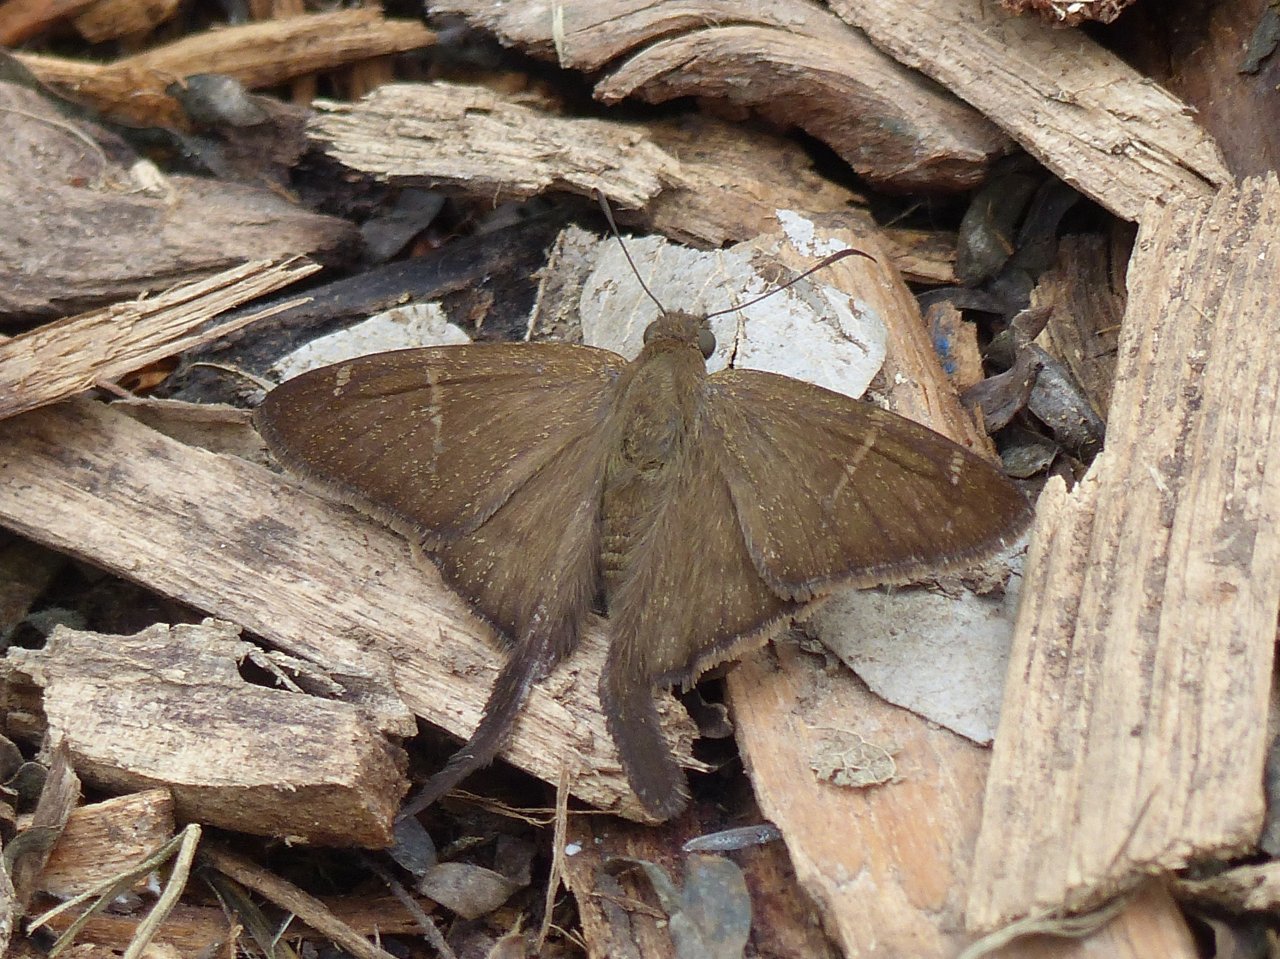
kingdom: Animalia
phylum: Arthropoda
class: Insecta
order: Lepidoptera
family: Hesperiidae
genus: Urbanus
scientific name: Urbanus procne
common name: Brown Longtail
